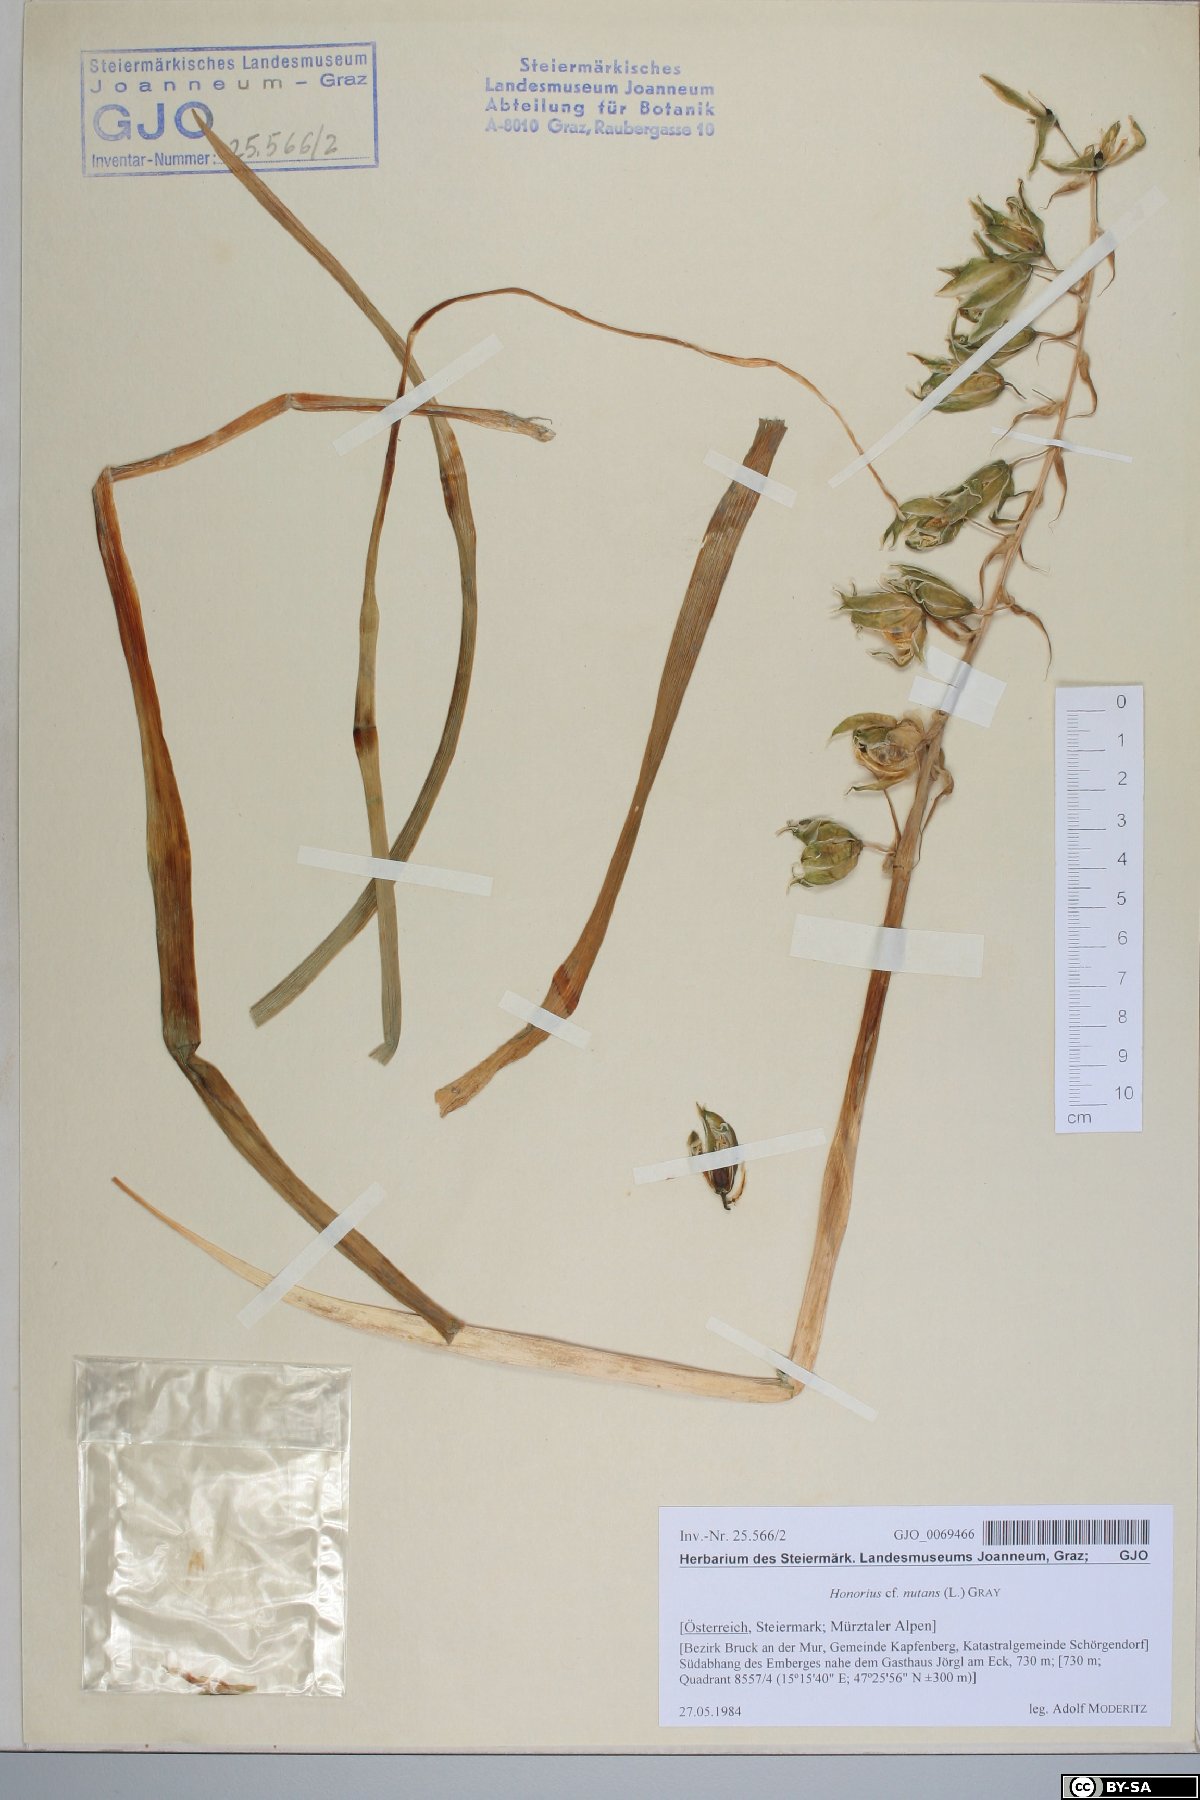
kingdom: Plantae
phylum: Tracheophyta
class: Liliopsida
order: Asparagales
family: Asparagaceae
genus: Ornithogalum
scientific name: Ornithogalum nutans
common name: Drooping star-of-bethlehem
